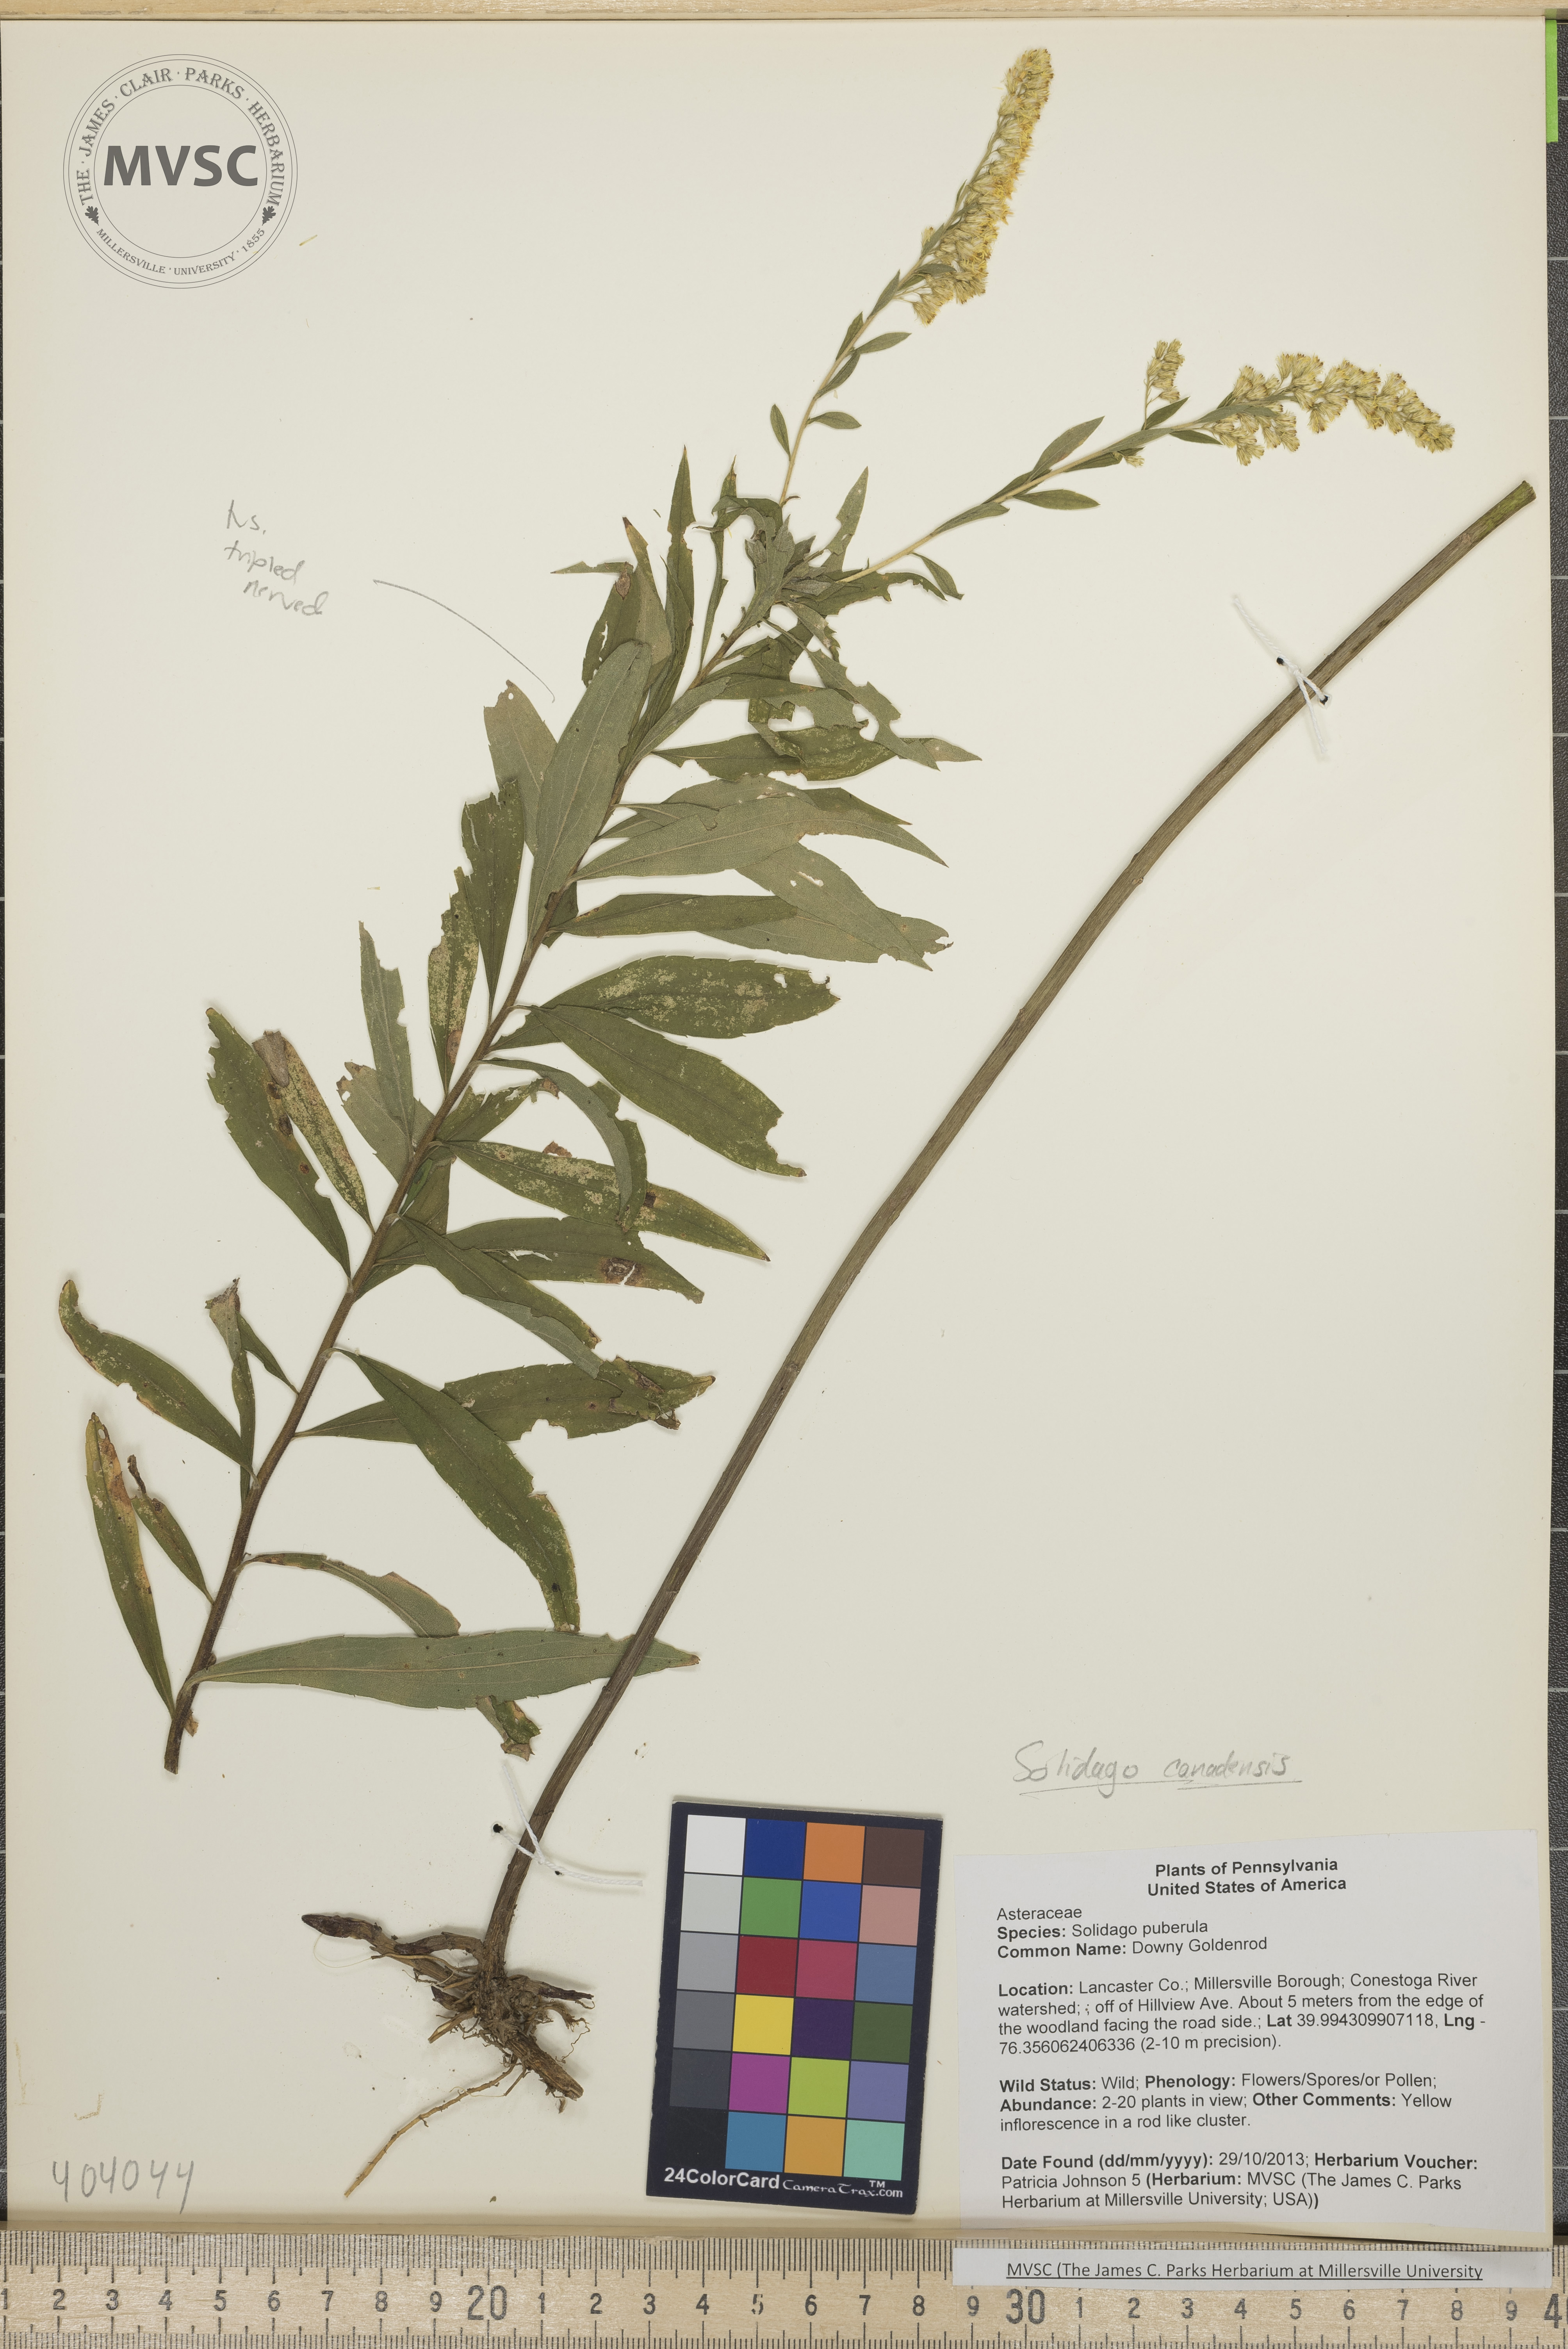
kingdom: Plantae
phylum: Tracheophyta
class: Magnoliopsida
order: Asterales
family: Asteraceae
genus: Solidago
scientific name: Solidago altissima
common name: Late goldenrod
